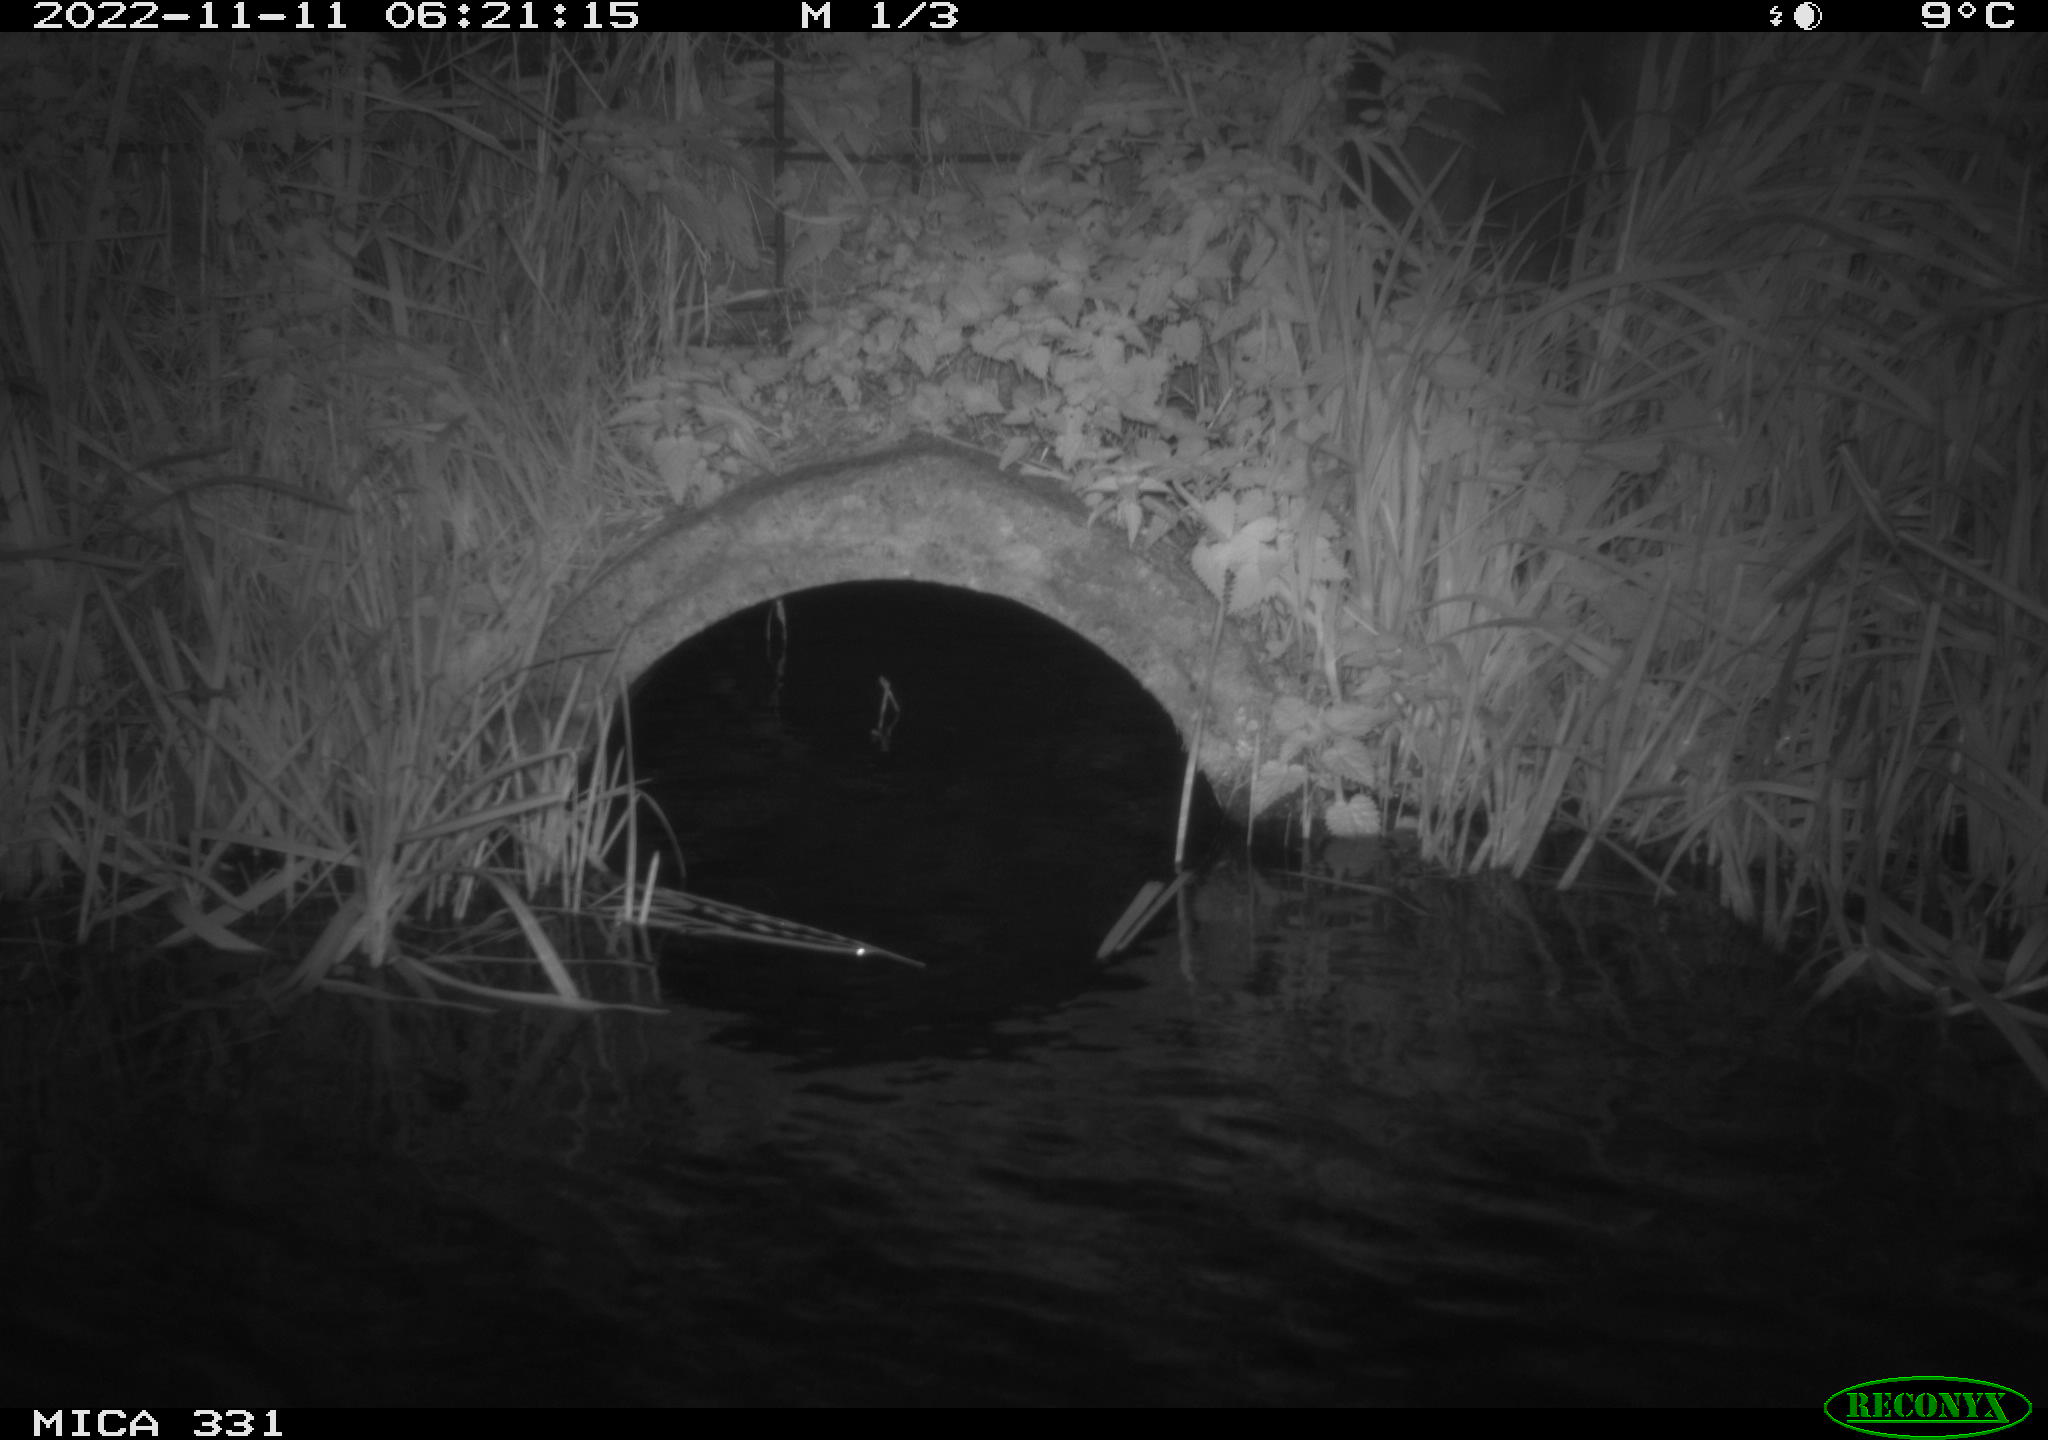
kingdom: Animalia
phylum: Chordata
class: Mammalia
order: Rodentia
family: Muridae
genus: Rattus
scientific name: Rattus norvegicus
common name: Brown rat
